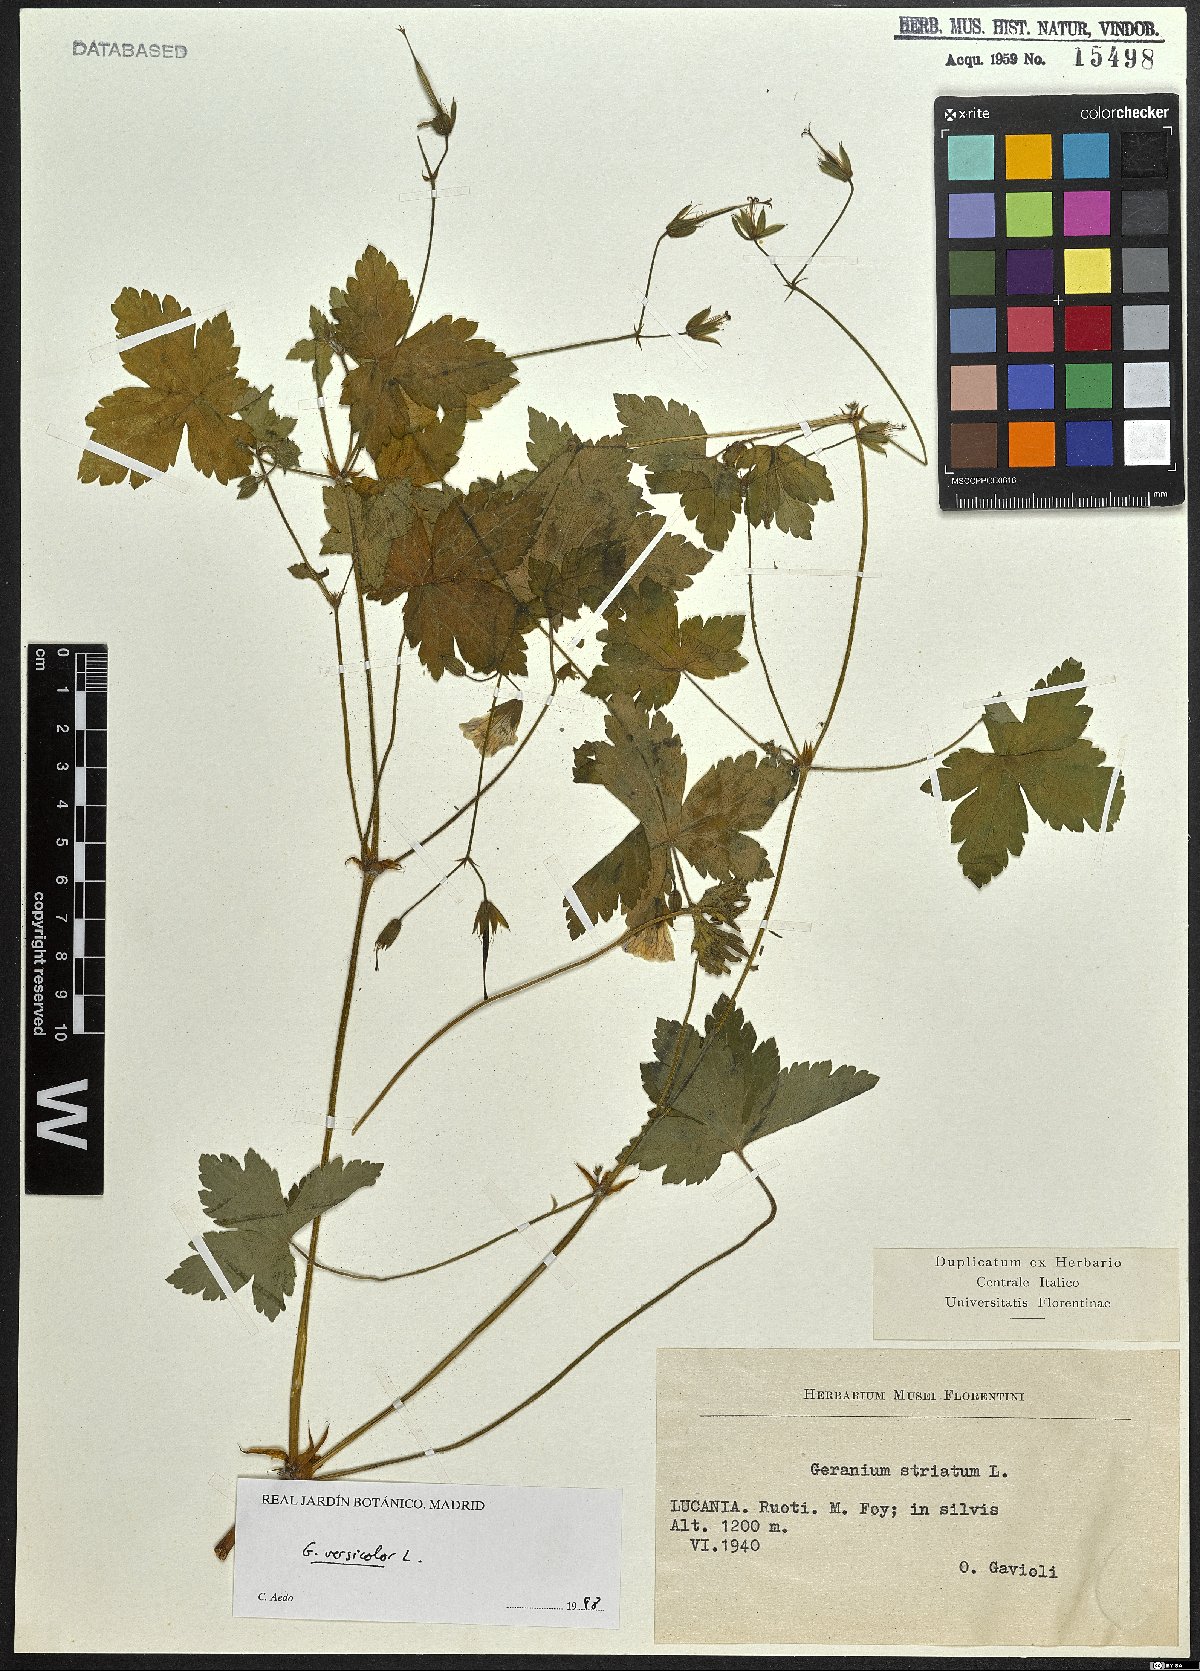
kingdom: Plantae
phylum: Tracheophyta
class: Magnoliopsida
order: Geraniales
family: Geraniaceae
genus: Geranium
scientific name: Geranium versicolor
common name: Pencilled crane's-bill
